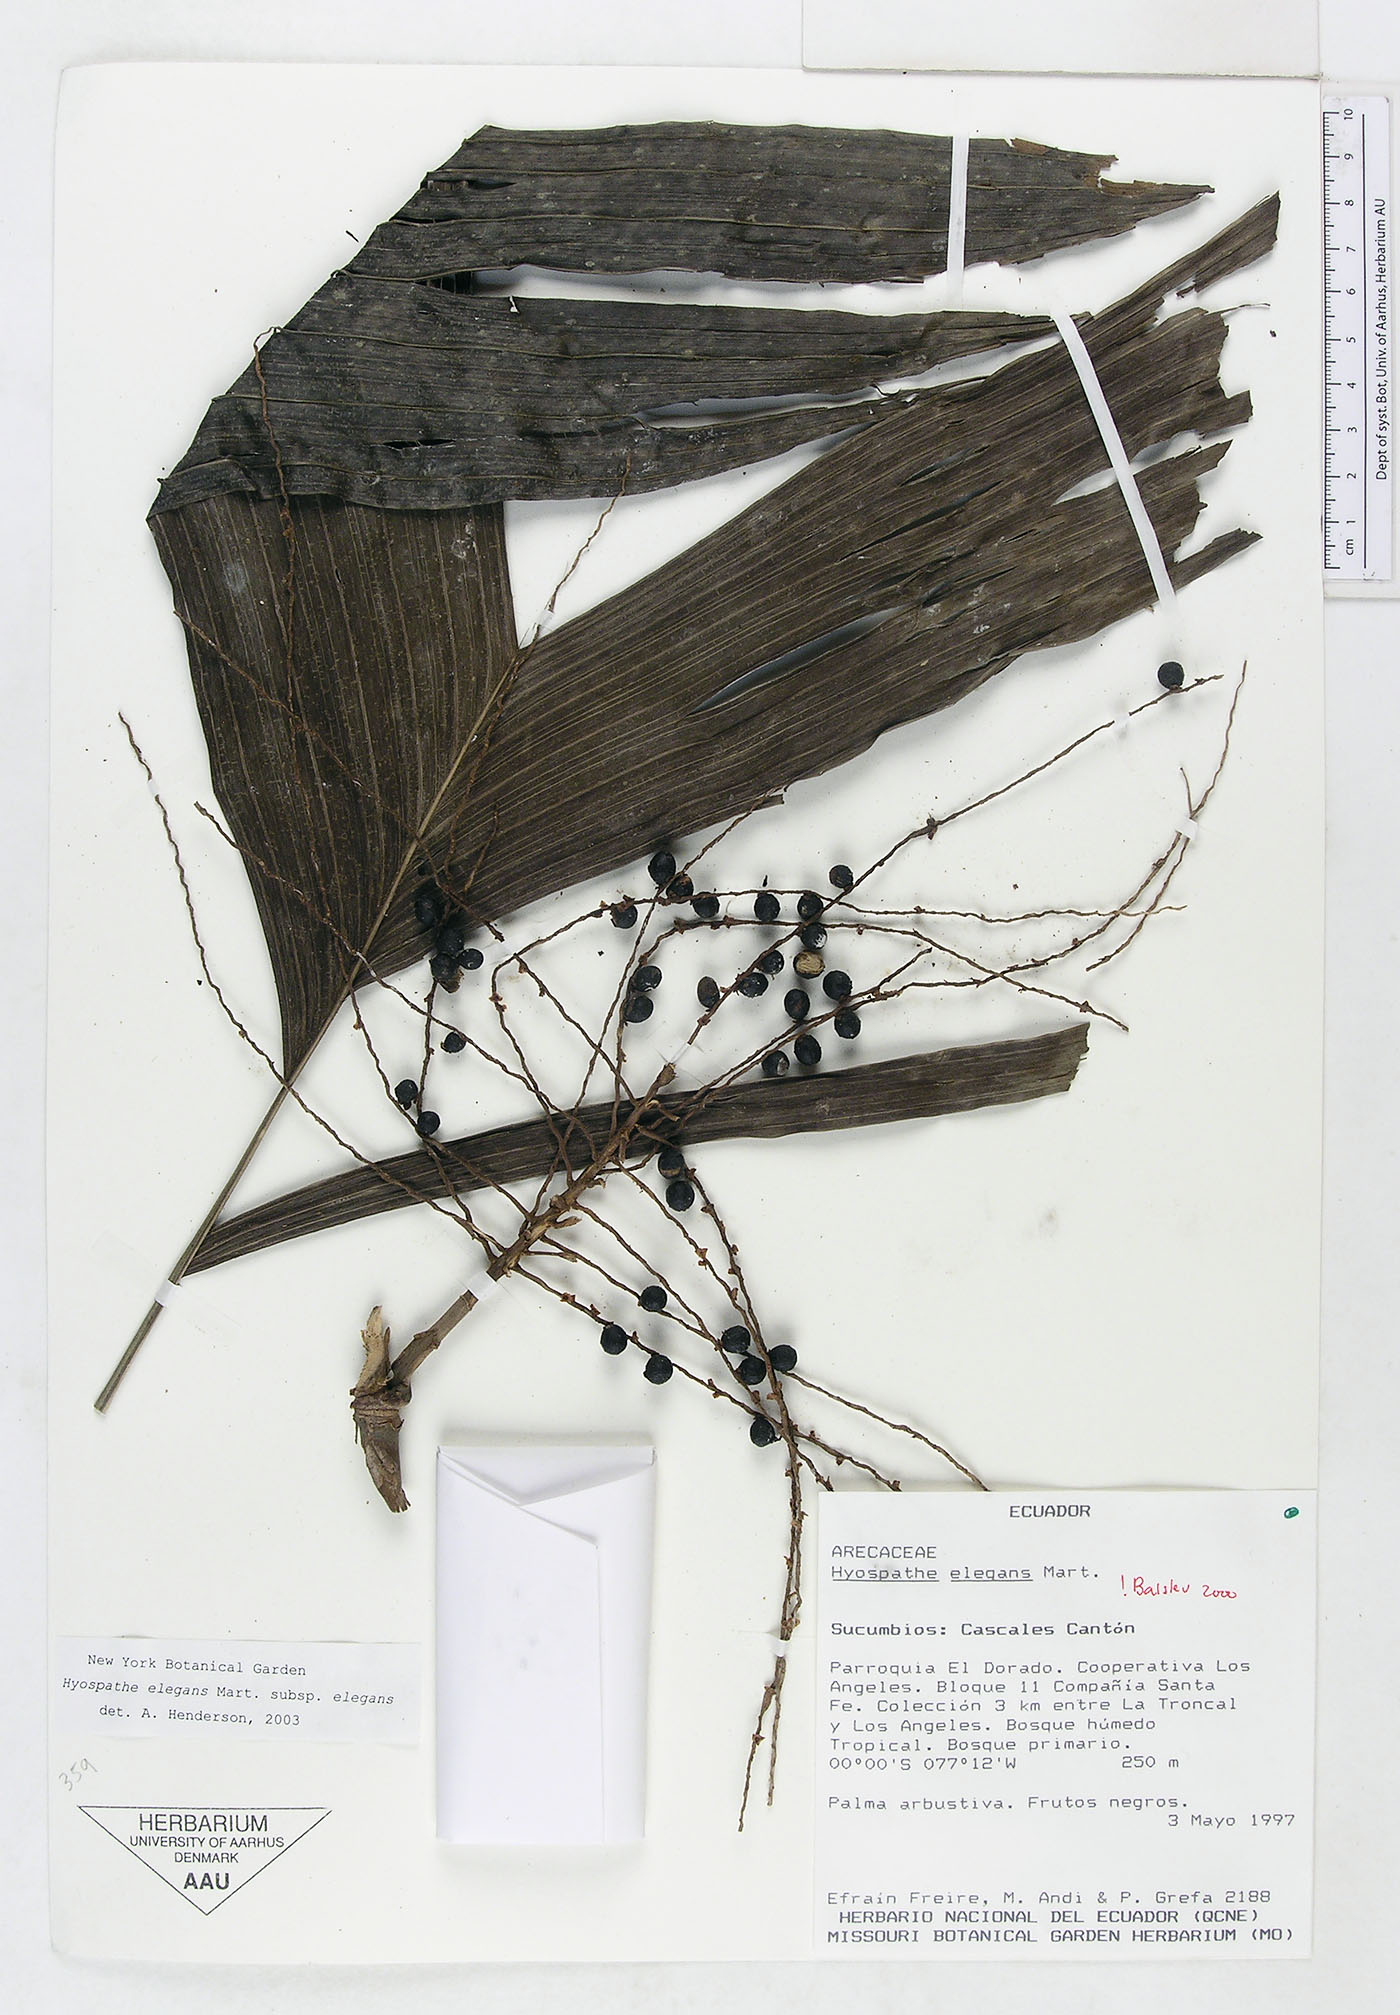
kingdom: Plantae
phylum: Tracheophyta
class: Liliopsida
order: Arecales
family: Arecaceae
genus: Hyospathe
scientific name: Hyospathe elegans
